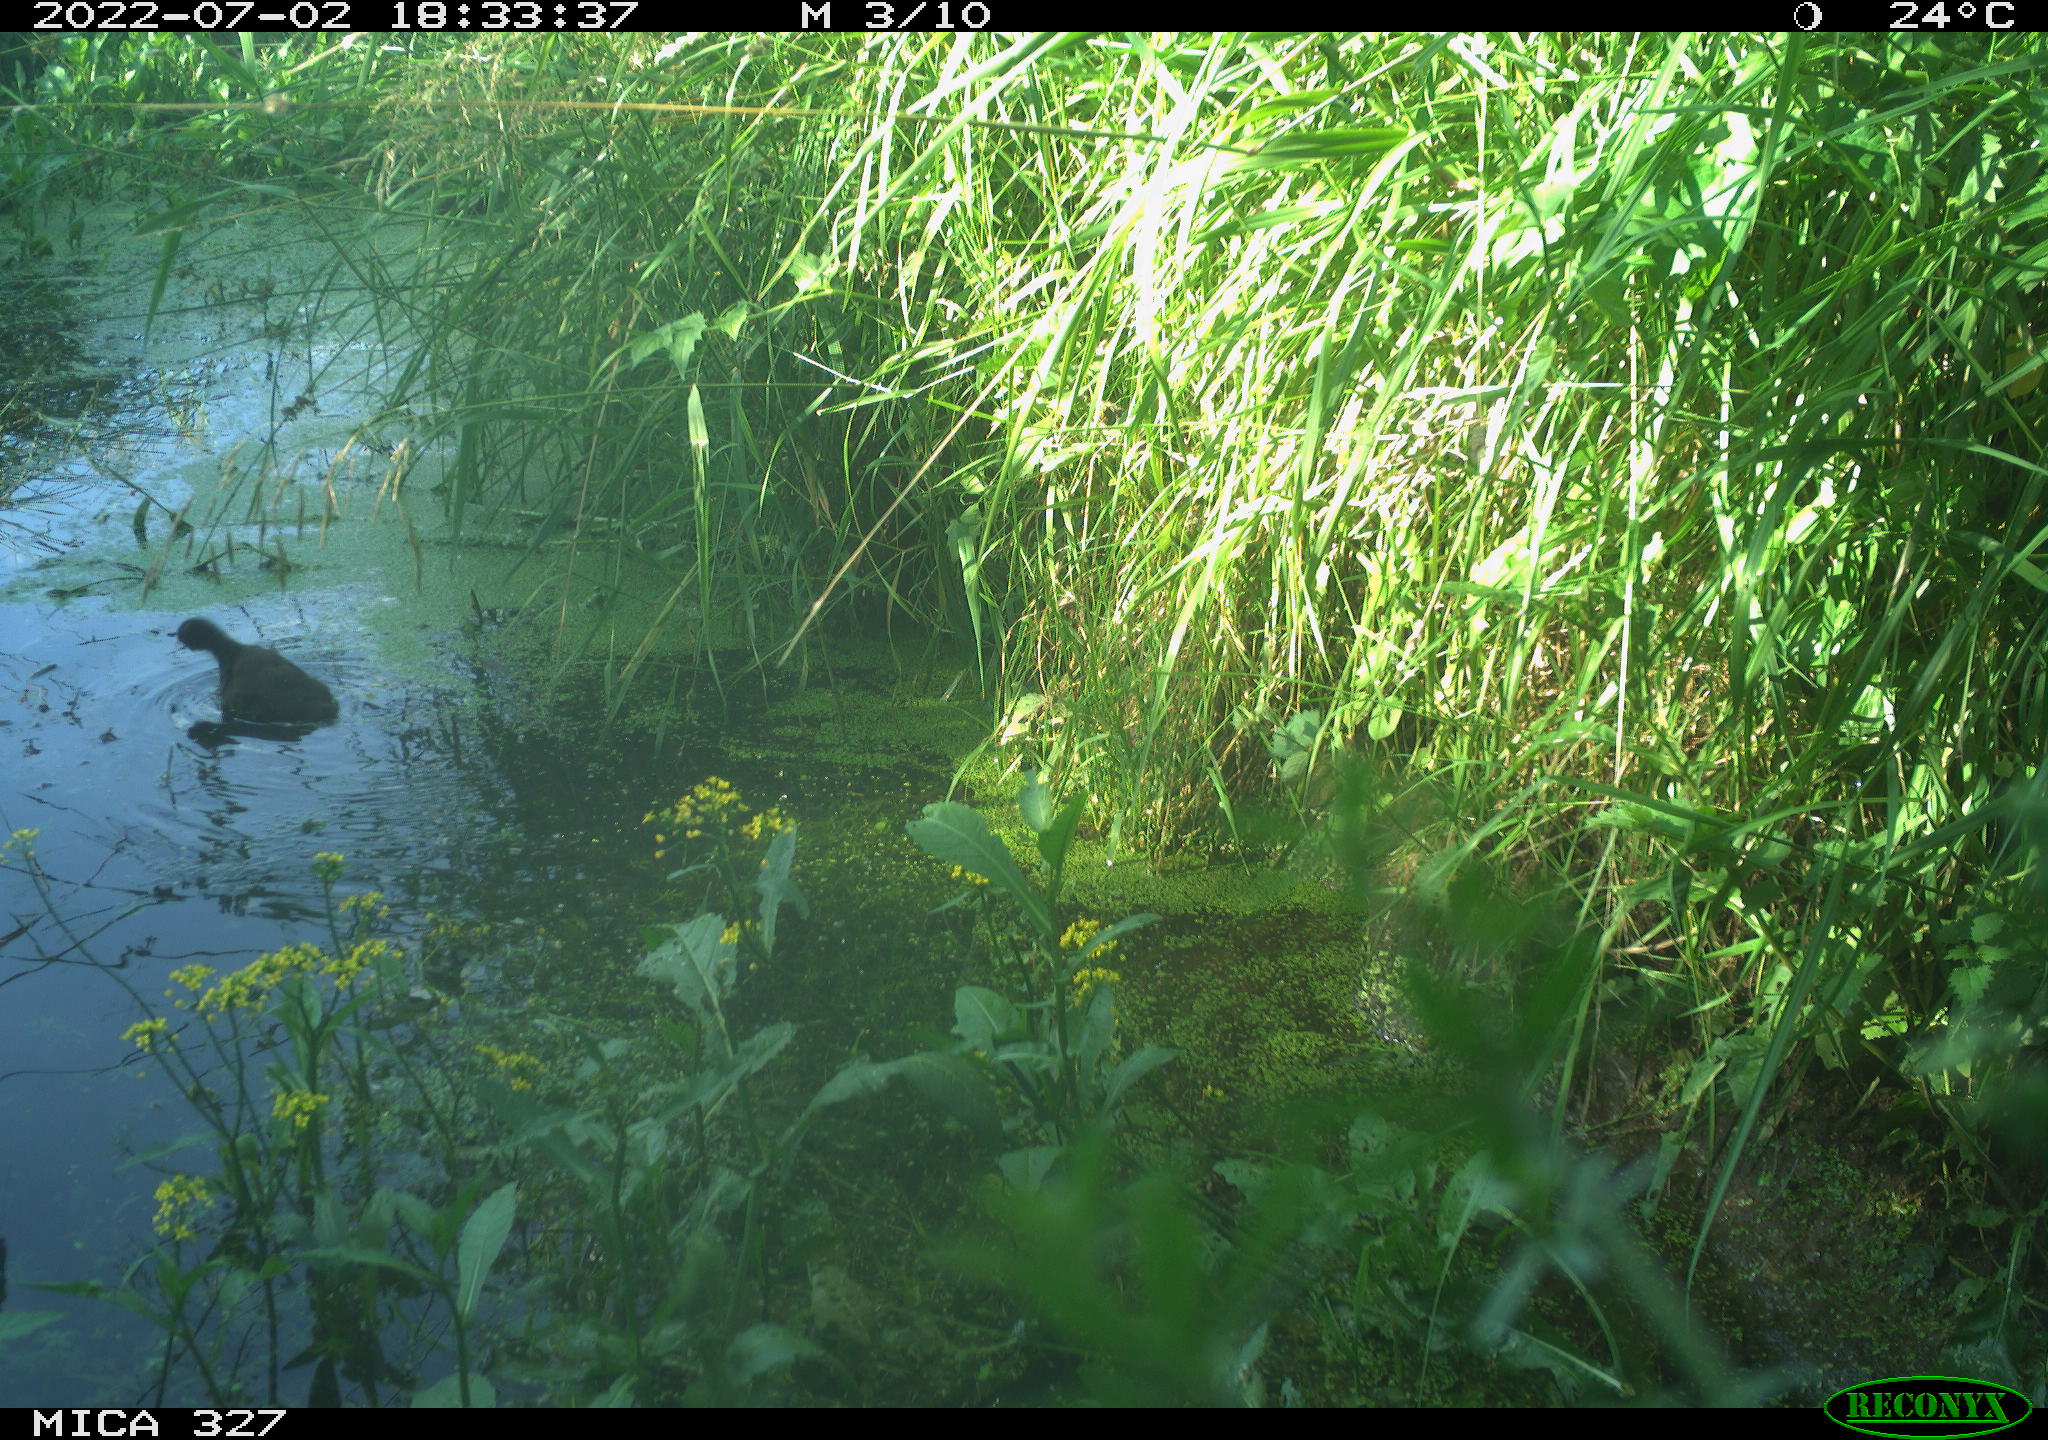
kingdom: Animalia
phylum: Chordata
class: Aves
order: Gruiformes
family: Rallidae
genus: Gallinula
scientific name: Gallinula chloropus
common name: Common moorhen
